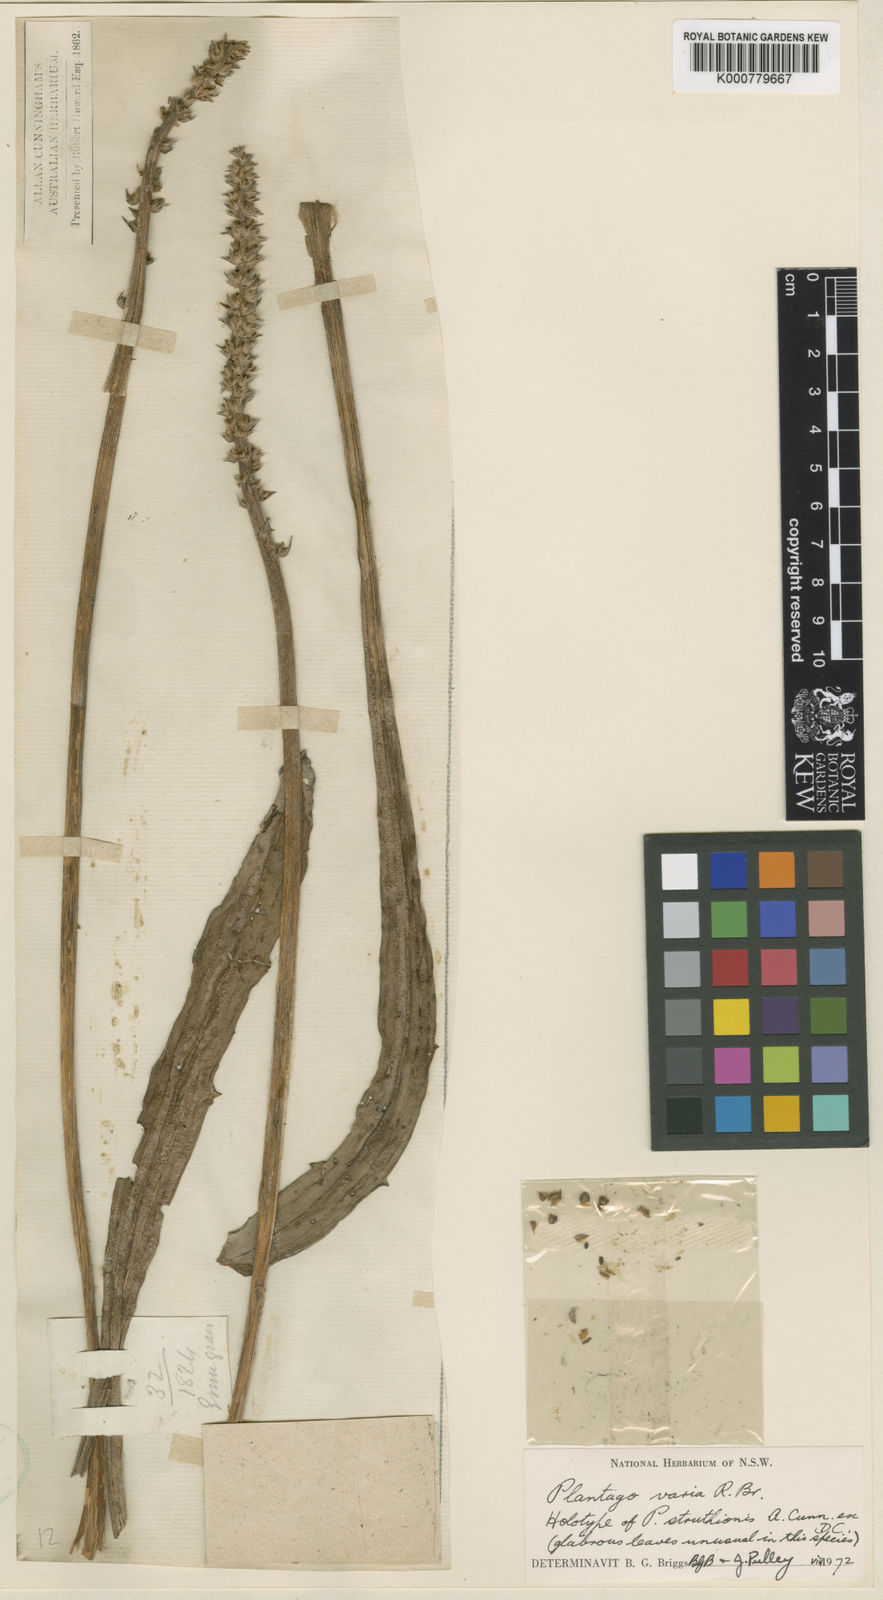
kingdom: Plantae
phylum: Tracheophyta
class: Magnoliopsida
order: Lamiales
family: Plantaginaceae
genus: Plantago
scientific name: Plantago varia
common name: Variable plantain
